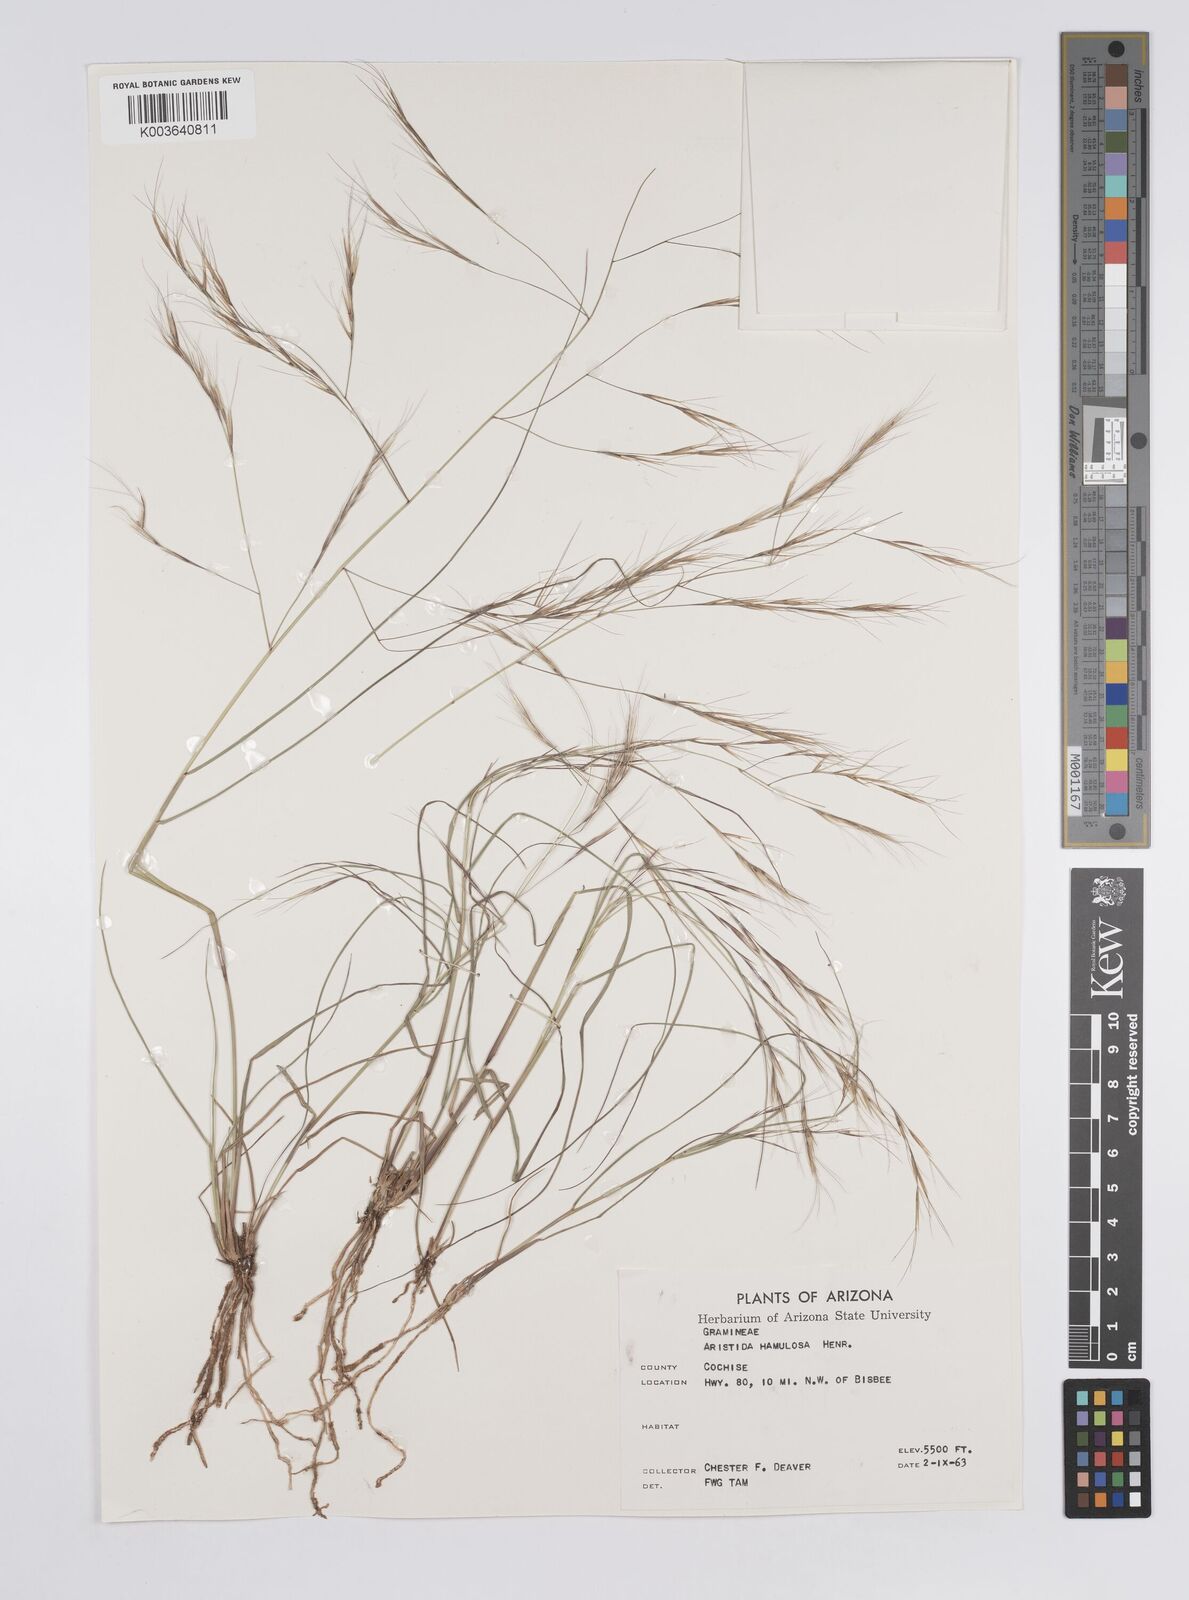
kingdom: Plantae
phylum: Tracheophyta
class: Liliopsida
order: Poales
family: Poaceae
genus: Aristida
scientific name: Aristida hamulosa
